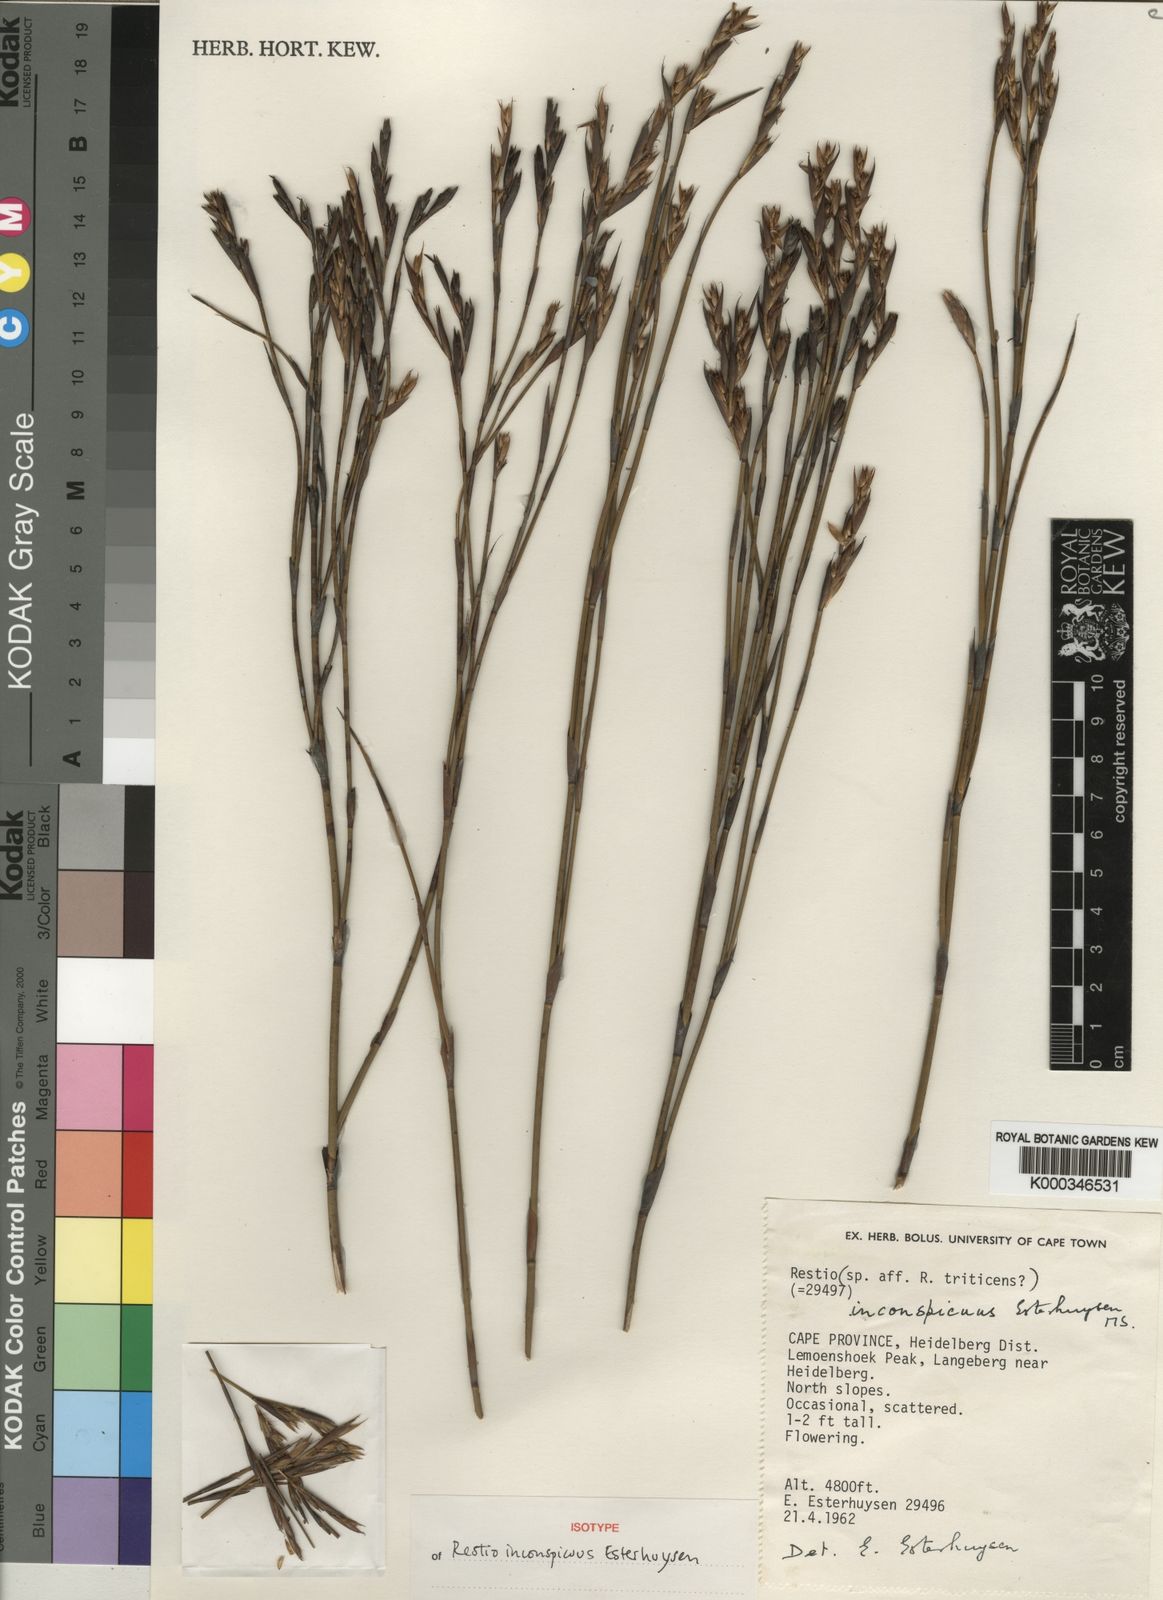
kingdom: Plantae
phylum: Tracheophyta
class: Liliopsida
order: Poales
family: Restionaceae
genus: Restio
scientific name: Restio inconspicuus
